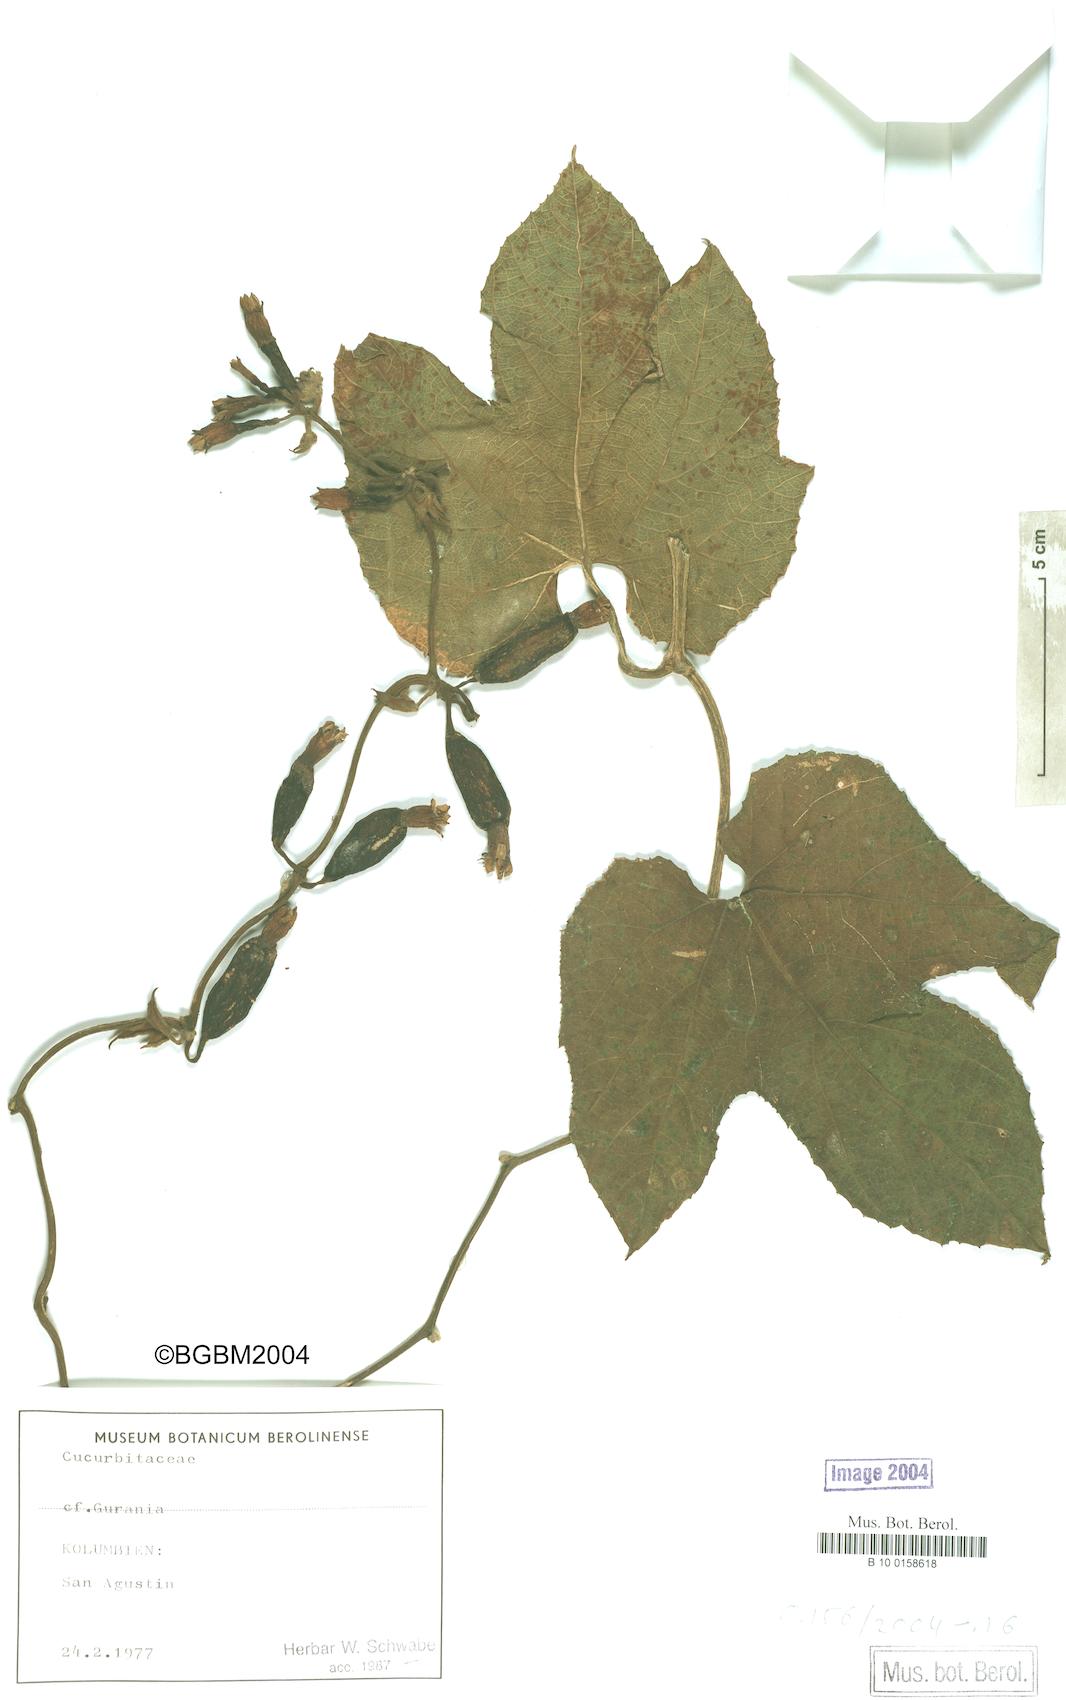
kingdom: Plantae
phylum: Tracheophyta
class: Magnoliopsida
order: Cucurbitales
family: Cucurbitaceae
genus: Gurania
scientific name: Gurania lobata
